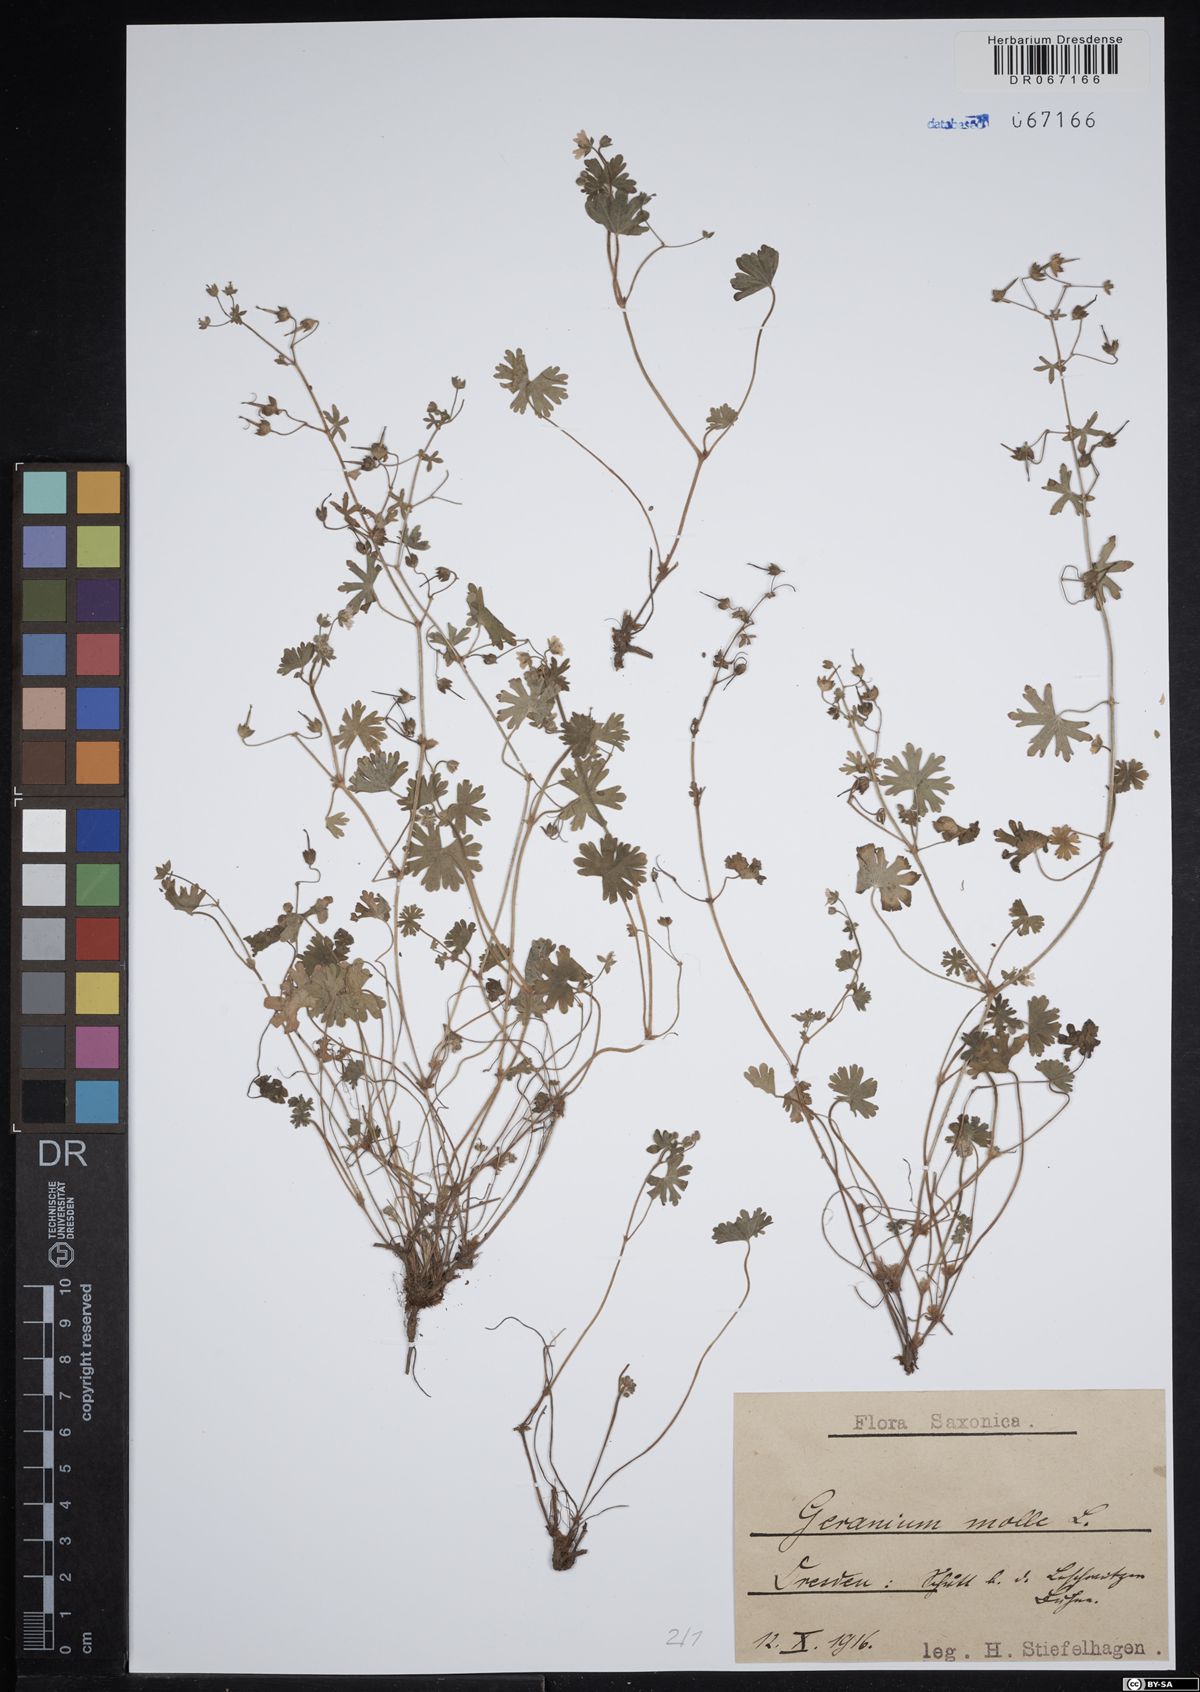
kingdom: Plantae
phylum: Tracheophyta
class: Magnoliopsida
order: Geraniales
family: Geraniaceae
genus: Geranium
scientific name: Geranium molle
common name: Dove's-foot crane's-bill
